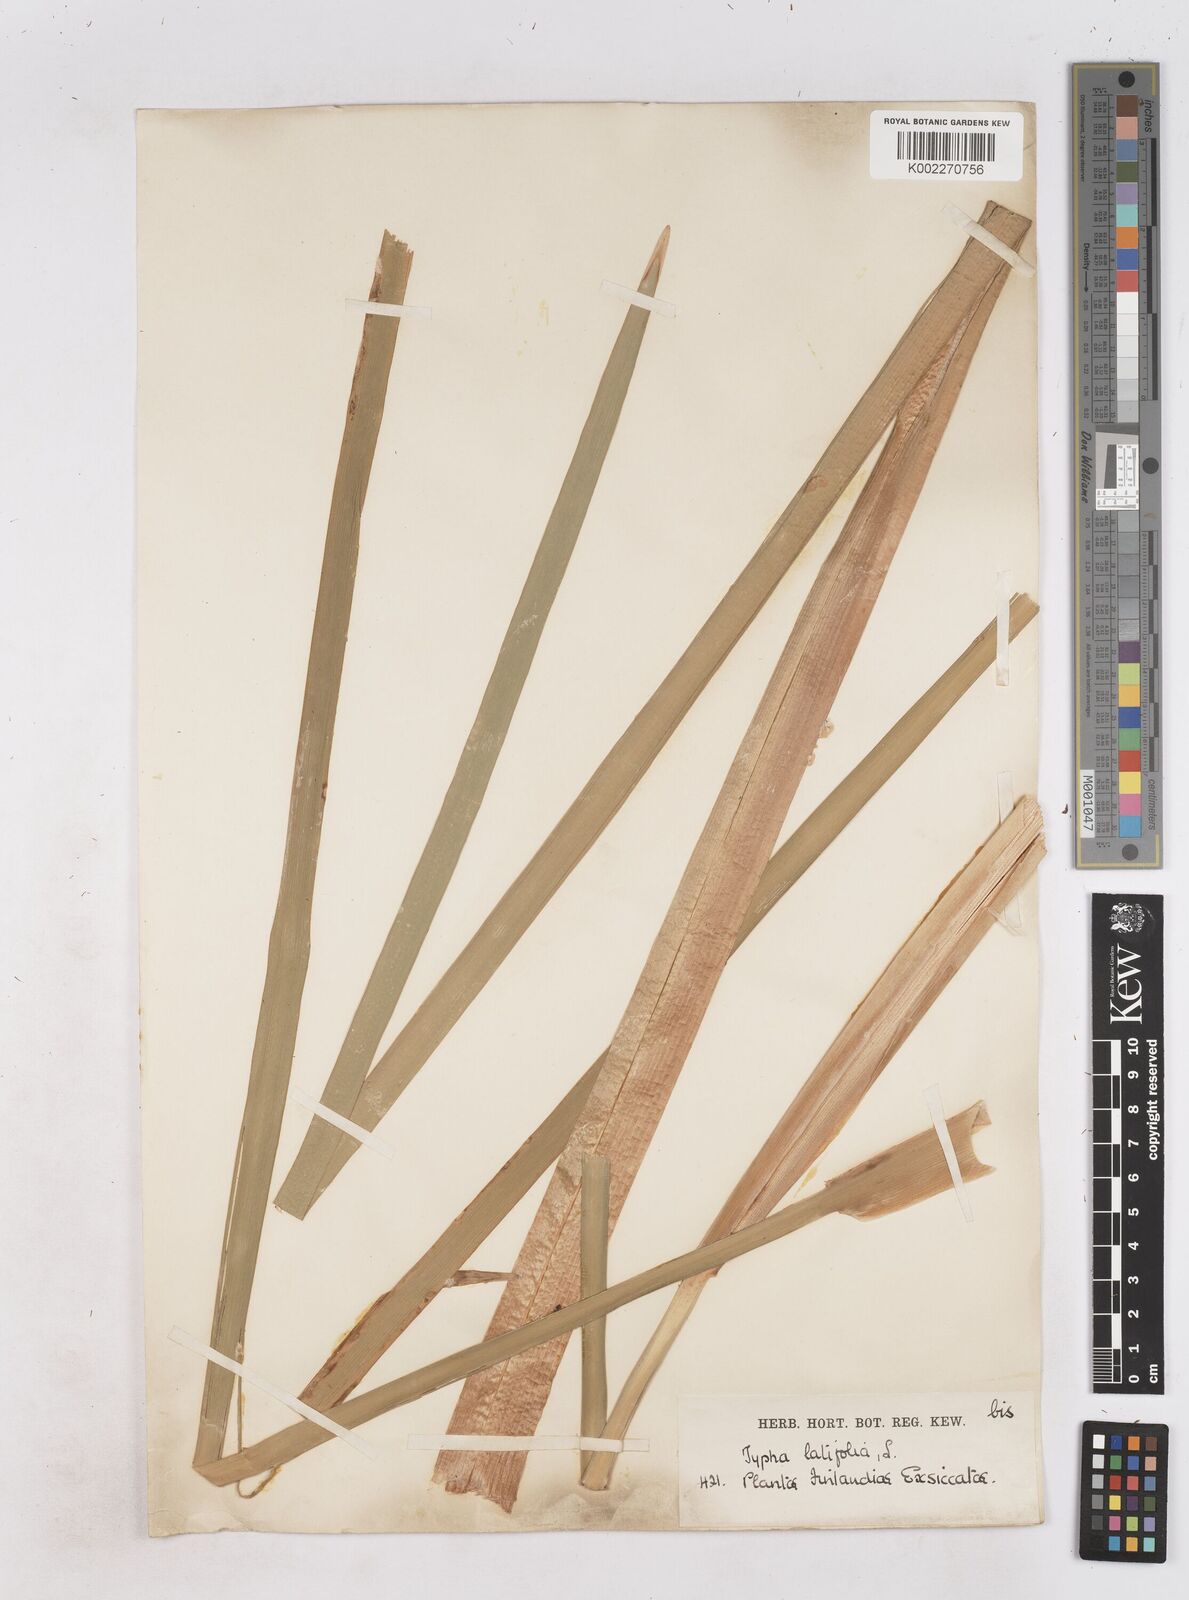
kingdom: Plantae
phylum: Tracheophyta
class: Liliopsida
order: Poales
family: Typhaceae
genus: Typha
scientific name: Typha latifolia
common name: Broadleaf cattail
